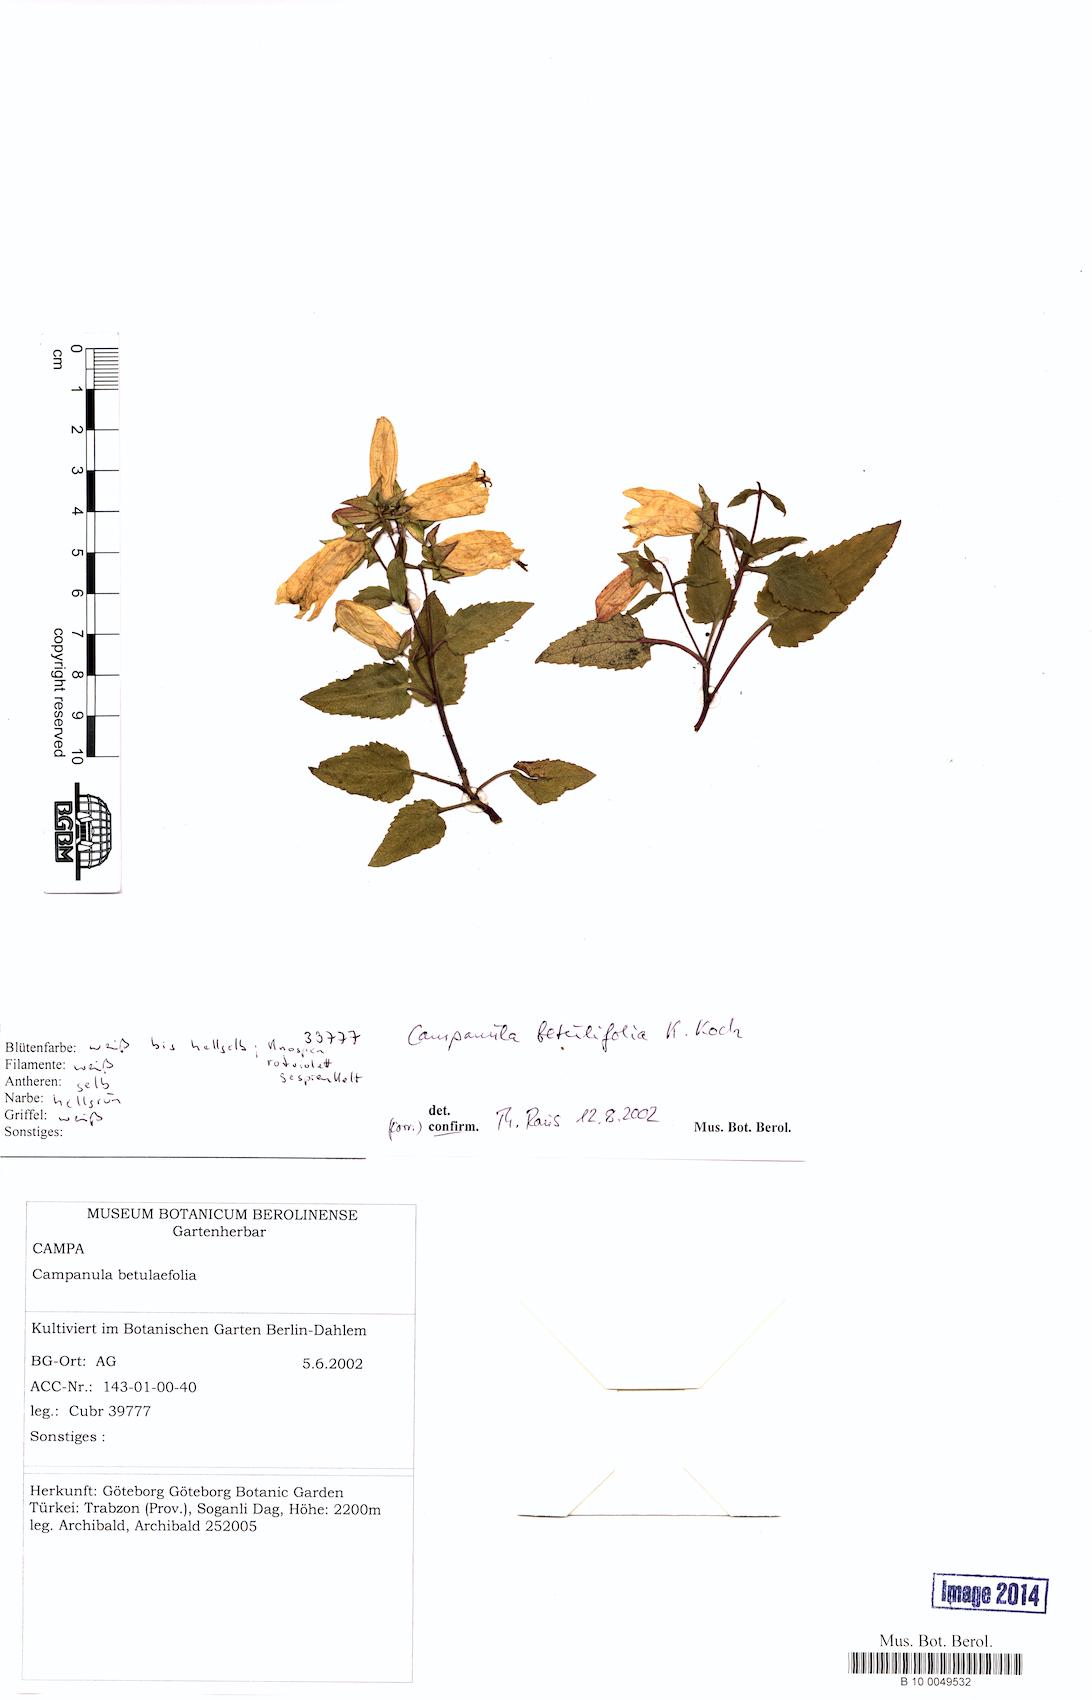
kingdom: Plantae
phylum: Tracheophyta
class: Magnoliopsida
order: Asterales
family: Campanulaceae
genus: Campanula
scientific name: Campanula betulifolia
